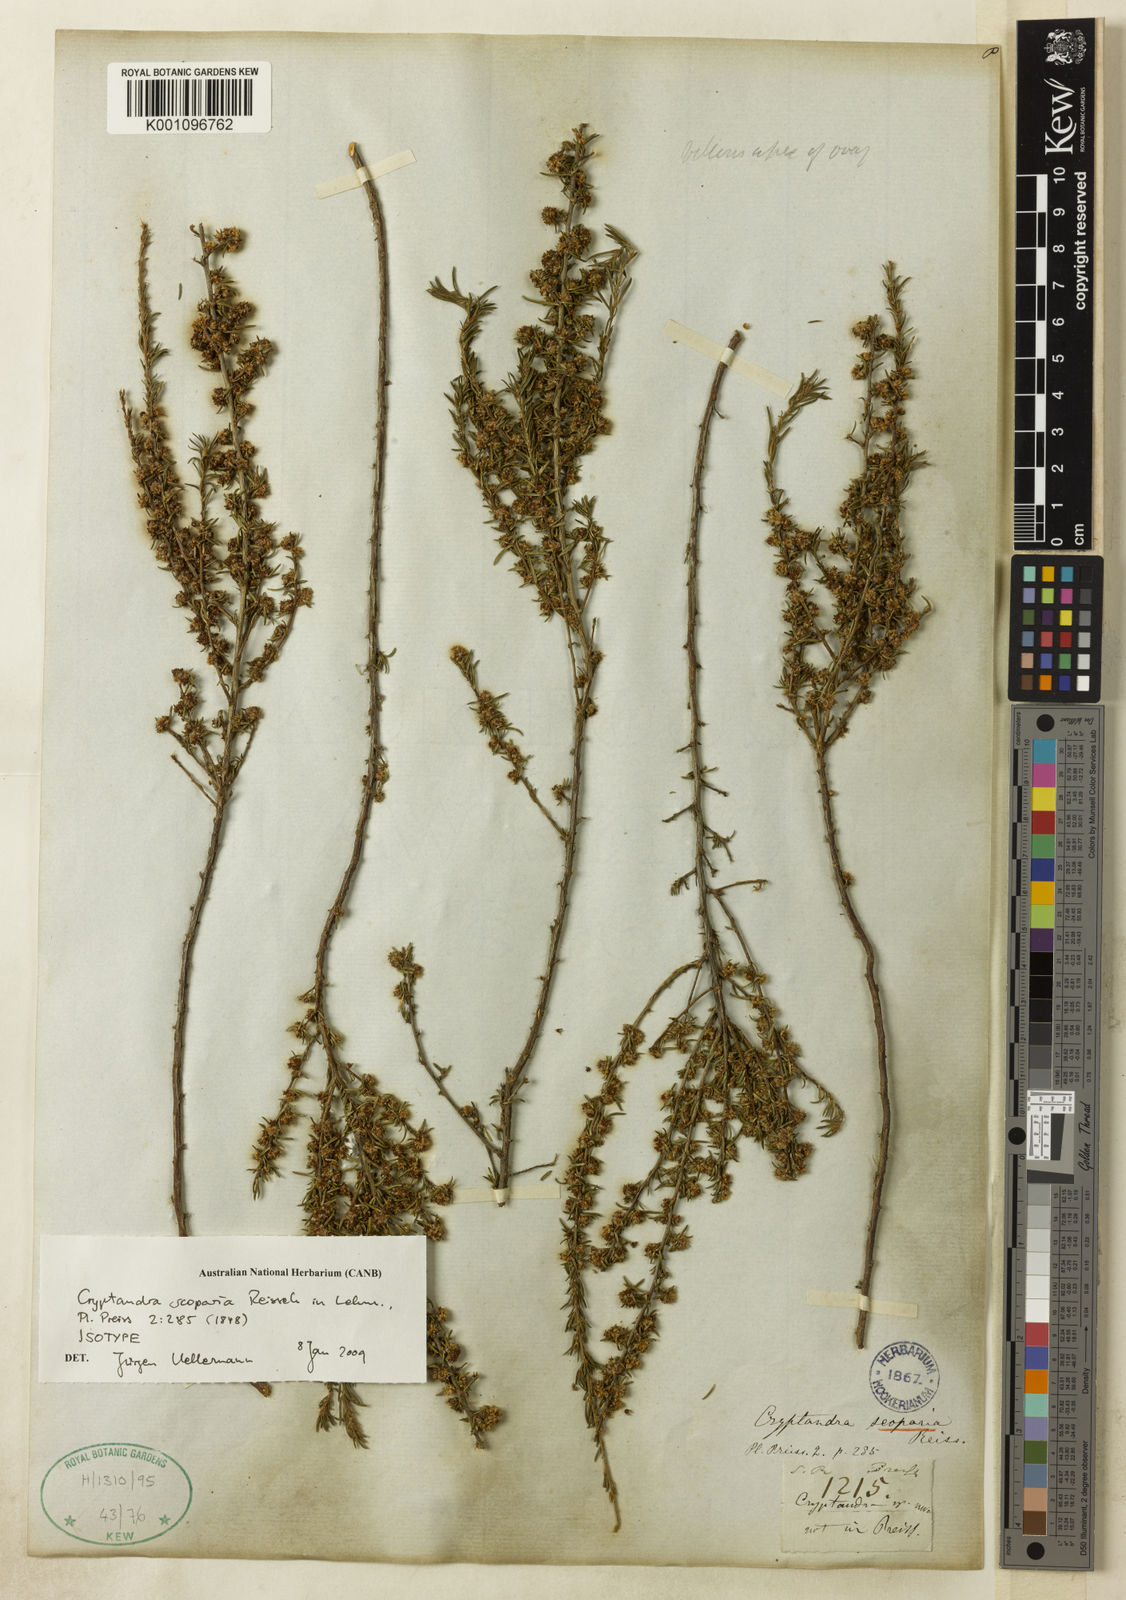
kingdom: Plantae
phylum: Tracheophyta
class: Magnoliopsida
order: Rosales
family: Rhamnaceae
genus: Cryptandra
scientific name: Cryptandra scoparia
